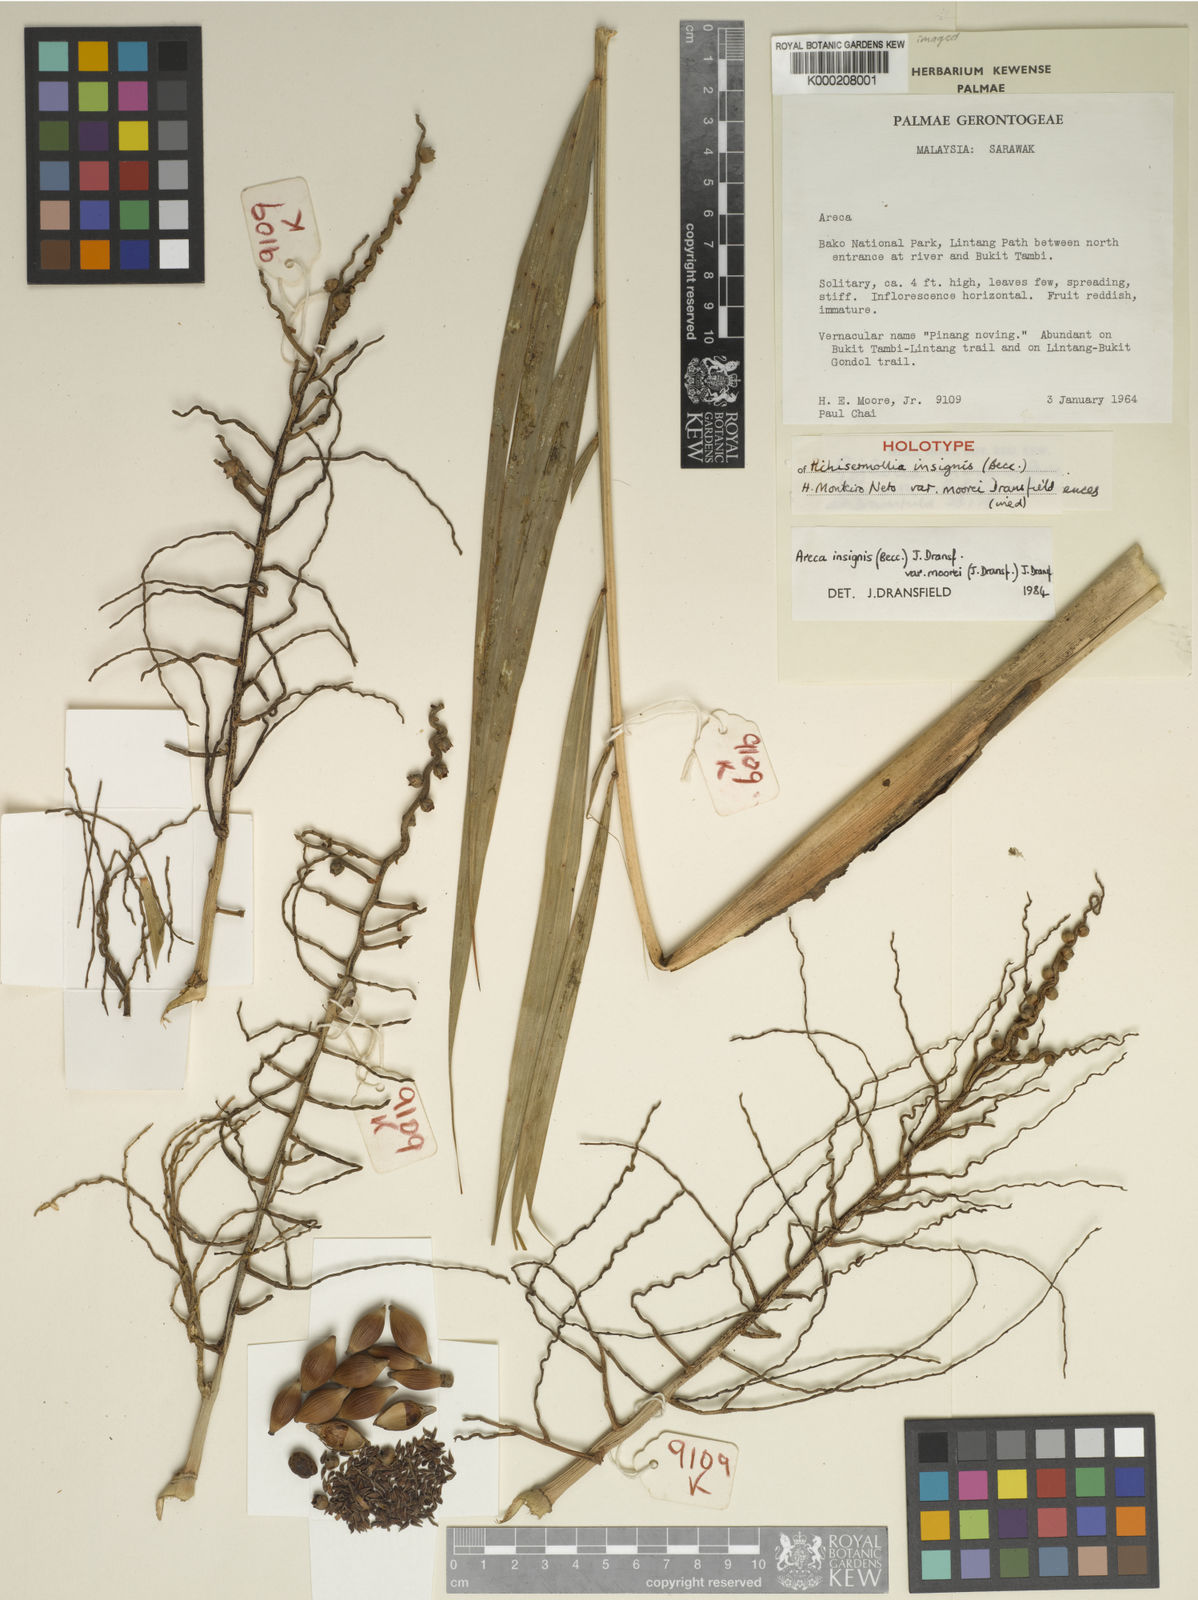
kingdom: Plantae
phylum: Tracheophyta
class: Liliopsida
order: Arecales
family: Arecaceae
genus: Areca
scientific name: Areca insignis
